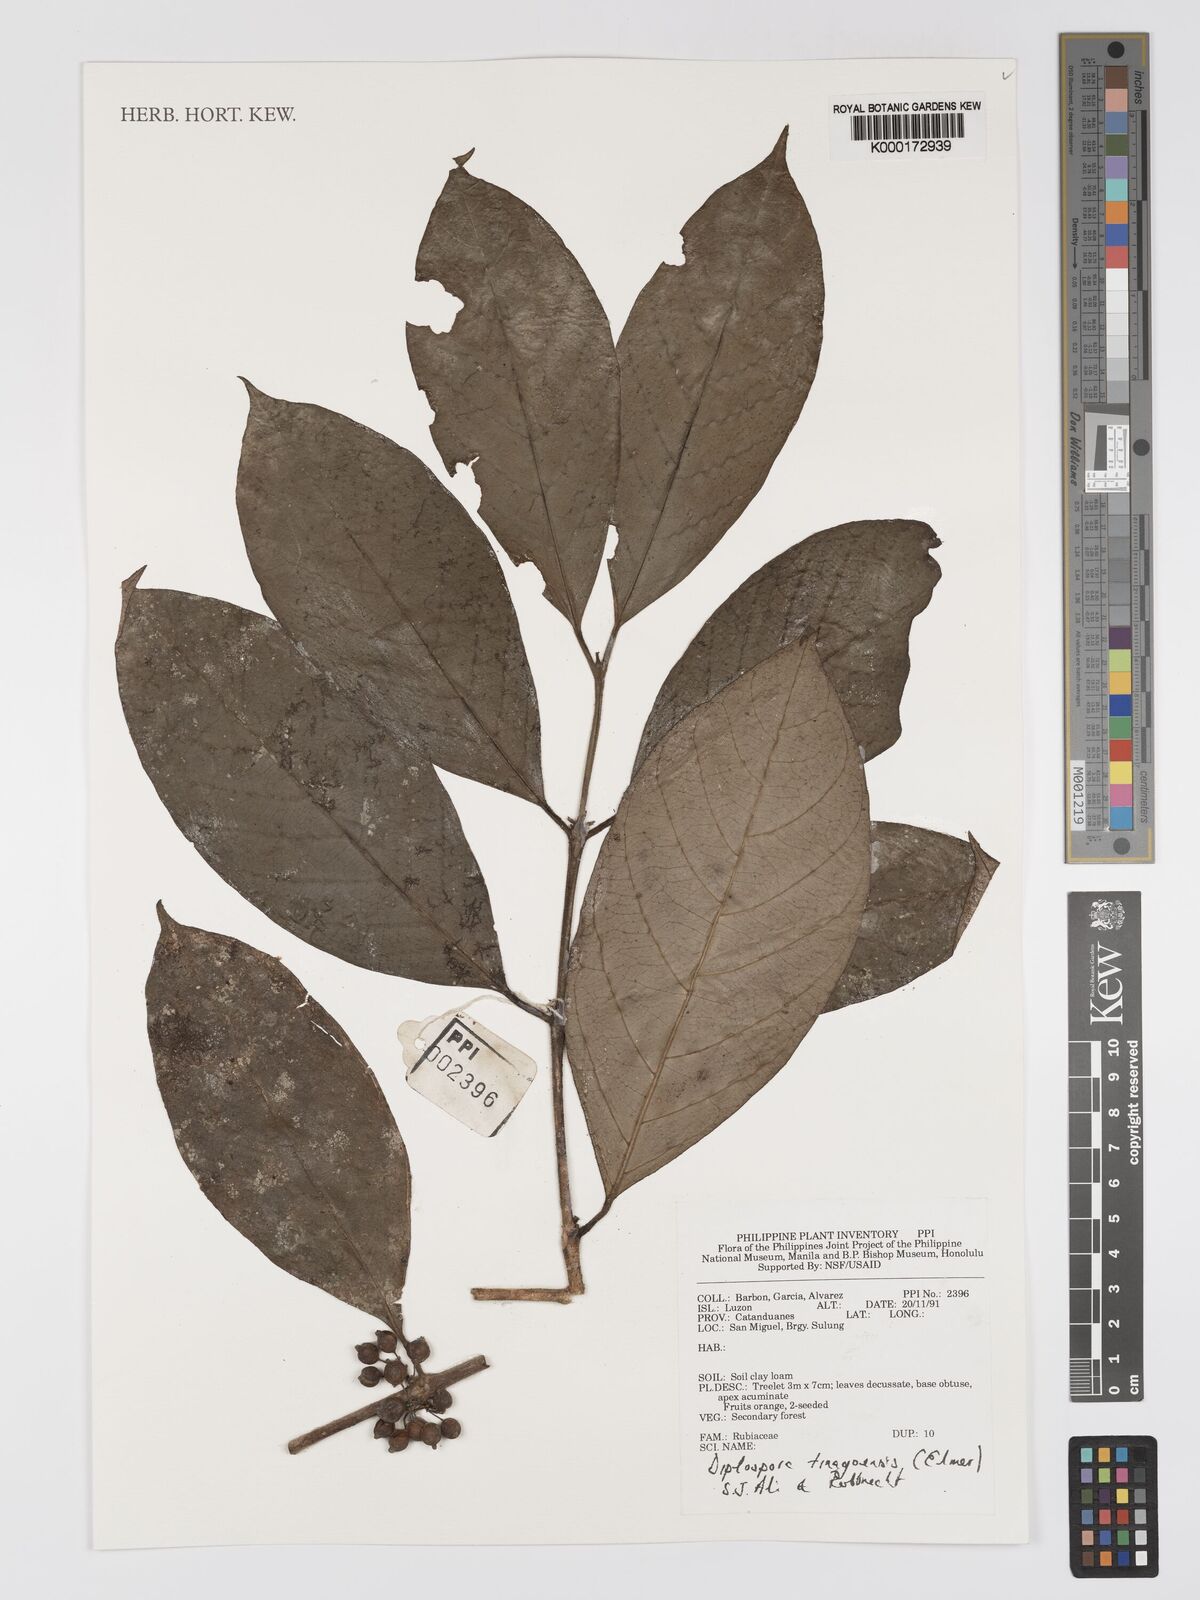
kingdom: Plantae
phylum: Tracheophyta
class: Magnoliopsida
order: Gentianales
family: Rubiaceae
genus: Diplospora
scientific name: Diplospora tinagoensis
